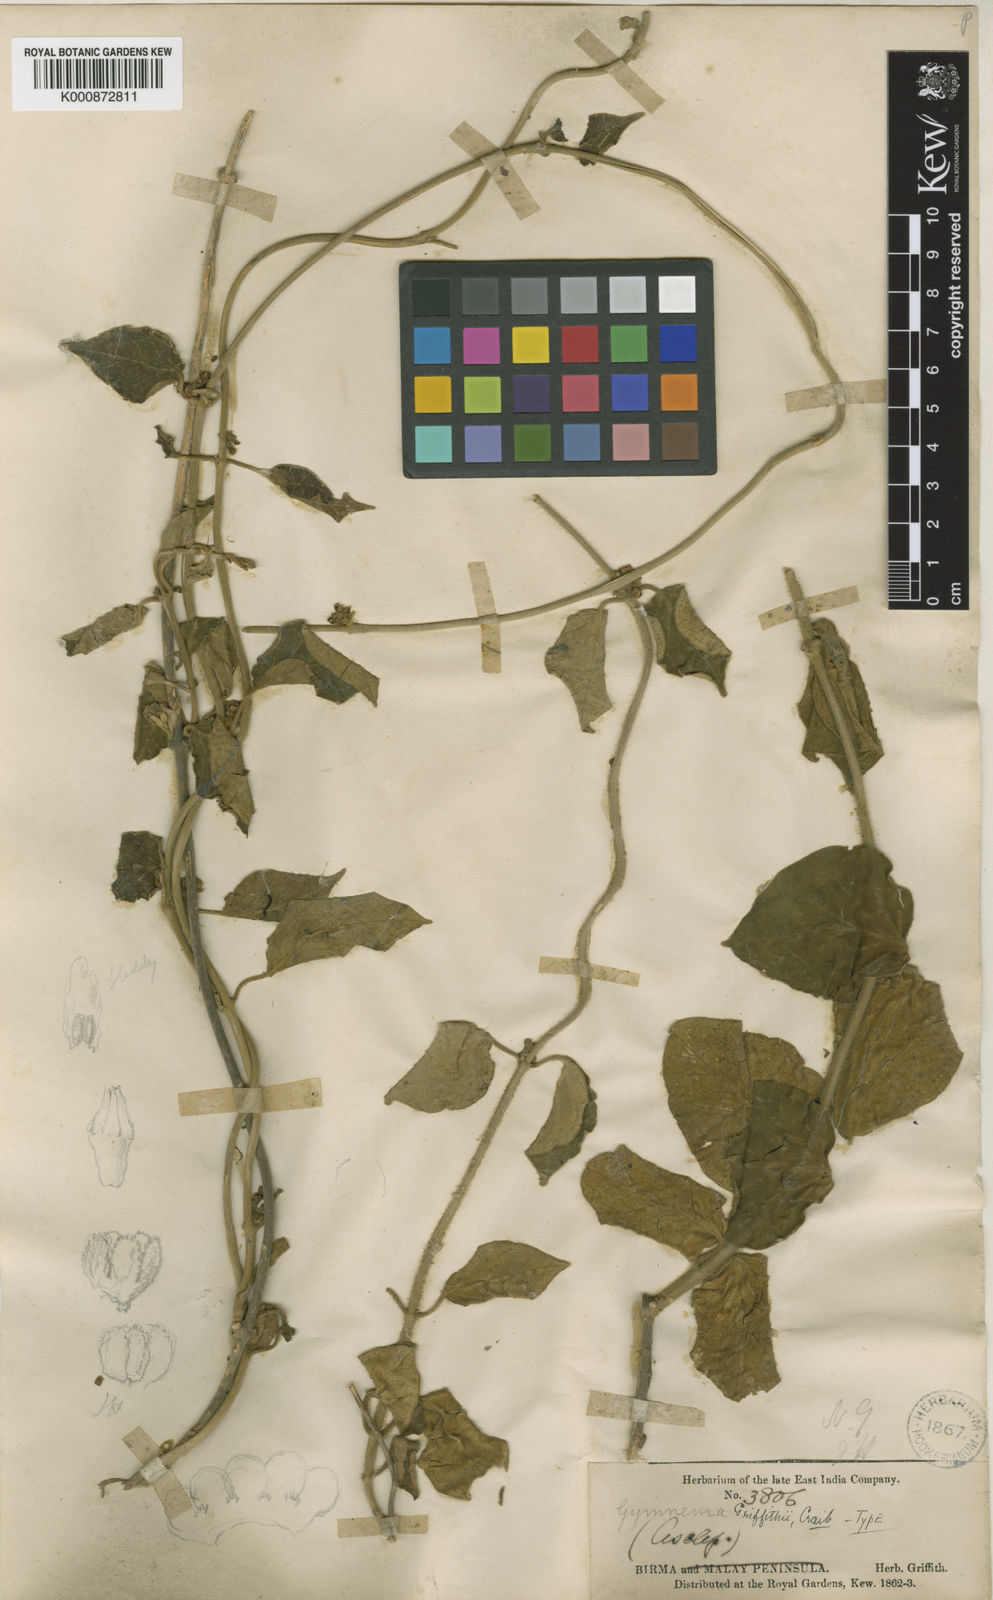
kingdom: Plantae
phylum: Tracheophyta
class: Magnoliopsida
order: Gentianales
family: Apocynaceae
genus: Gymnema
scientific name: Gymnema griffithii
